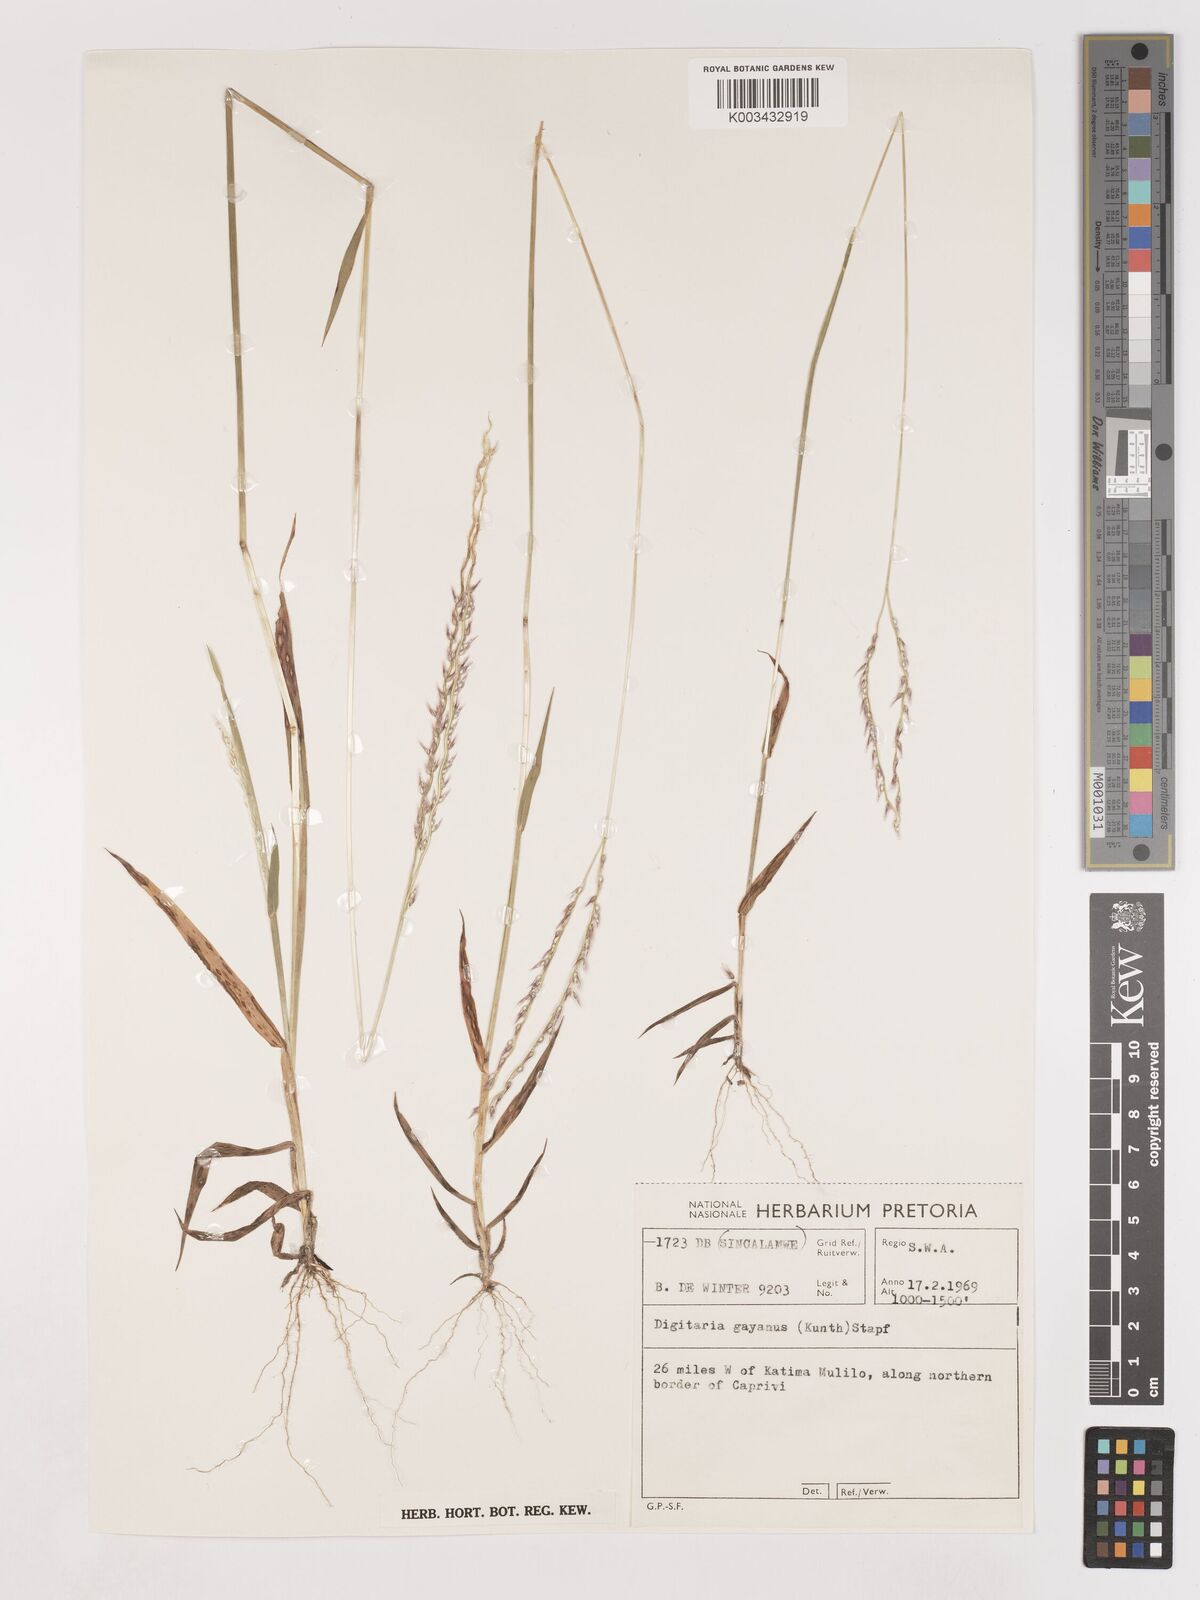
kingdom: Plantae
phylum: Tracheophyta
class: Liliopsida
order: Poales
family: Poaceae
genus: Digitaria
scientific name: Digitaria gayana
